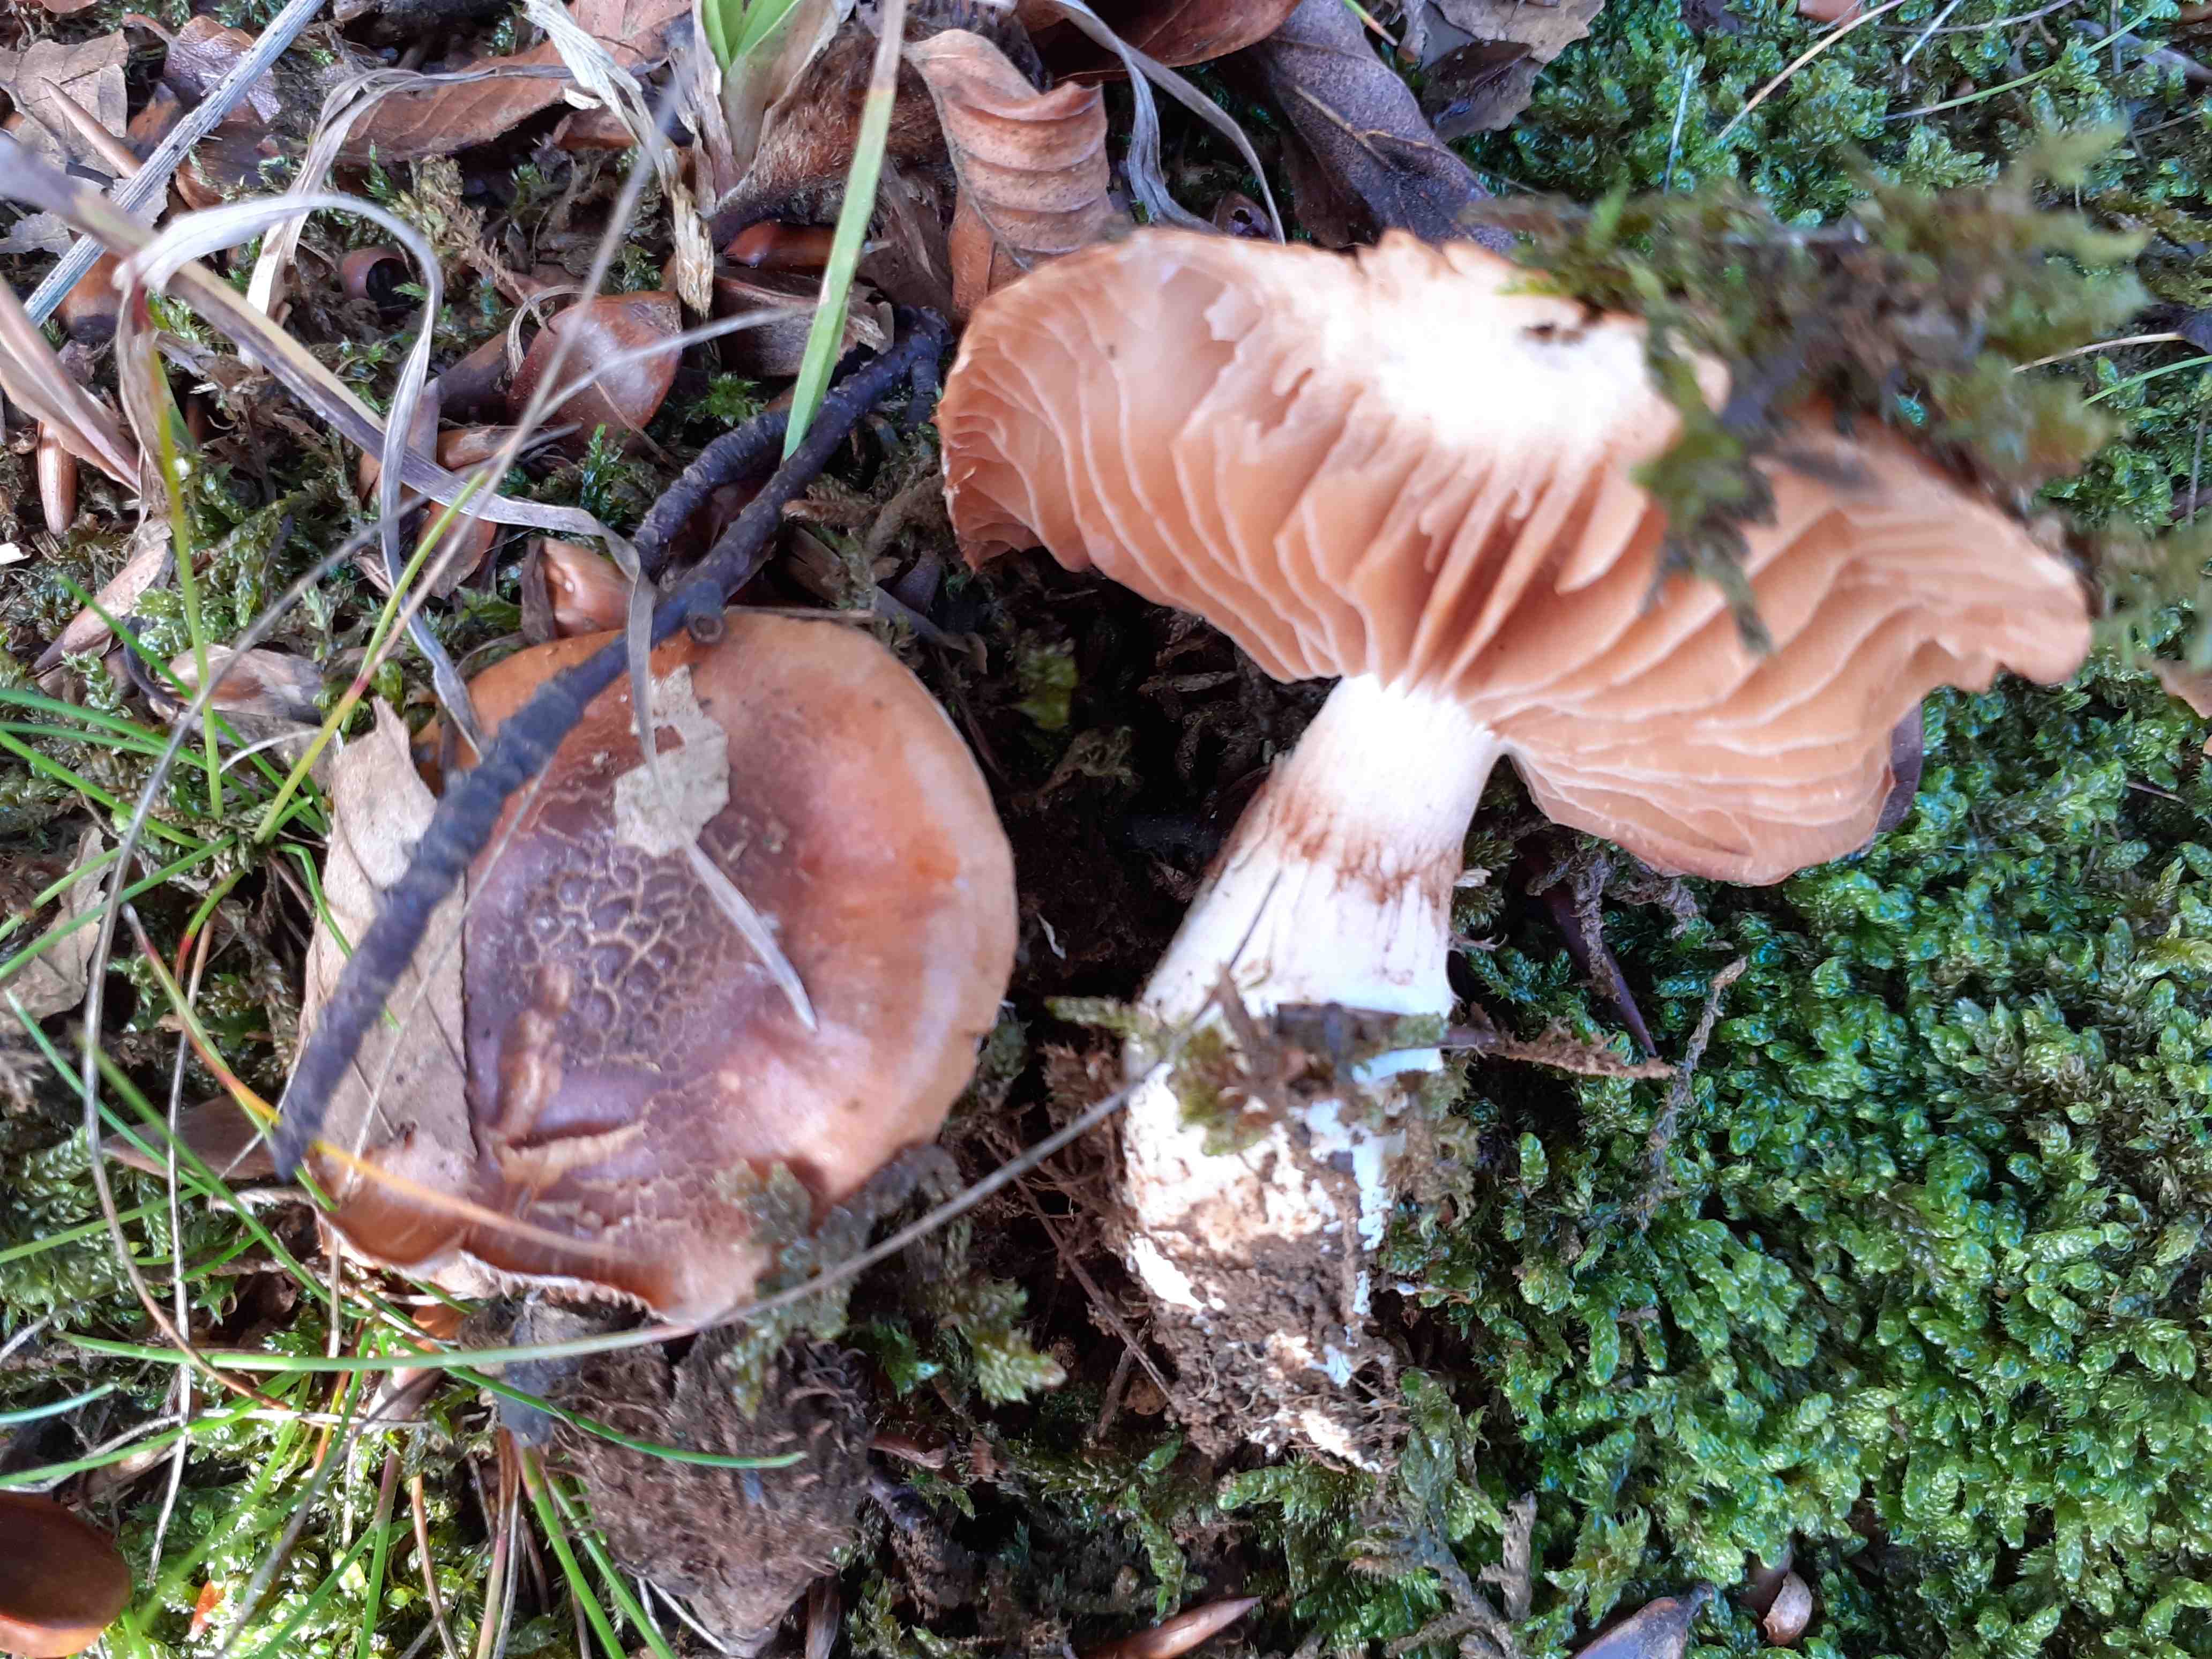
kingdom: Fungi
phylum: Basidiomycota
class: Agaricomycetes
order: Agaricales
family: Cortinariaceae
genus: Phlegmacium
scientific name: Phlegmacium vulpinum
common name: ringbæltet slørhat
